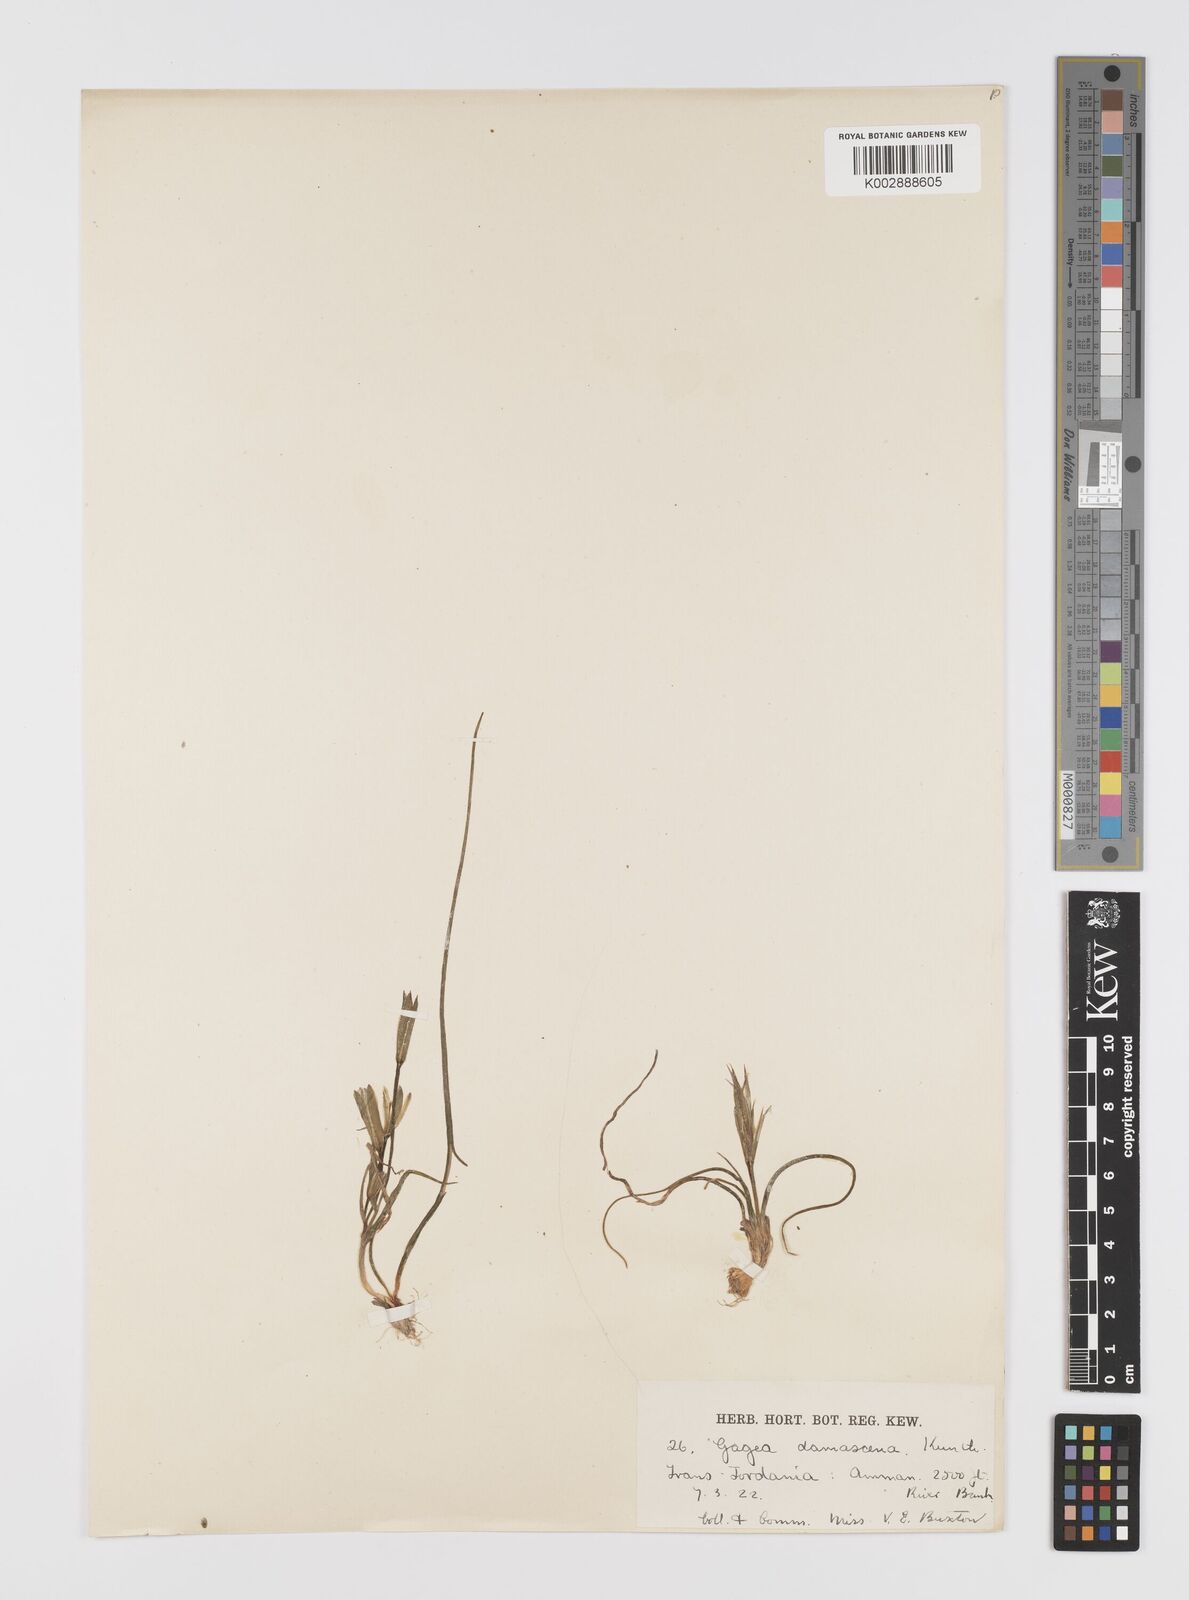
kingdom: Plantae
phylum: Tracheophyta
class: Liliopsida
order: Liliales
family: Liliaceae
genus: Gagea
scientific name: Gagea chlorantha
